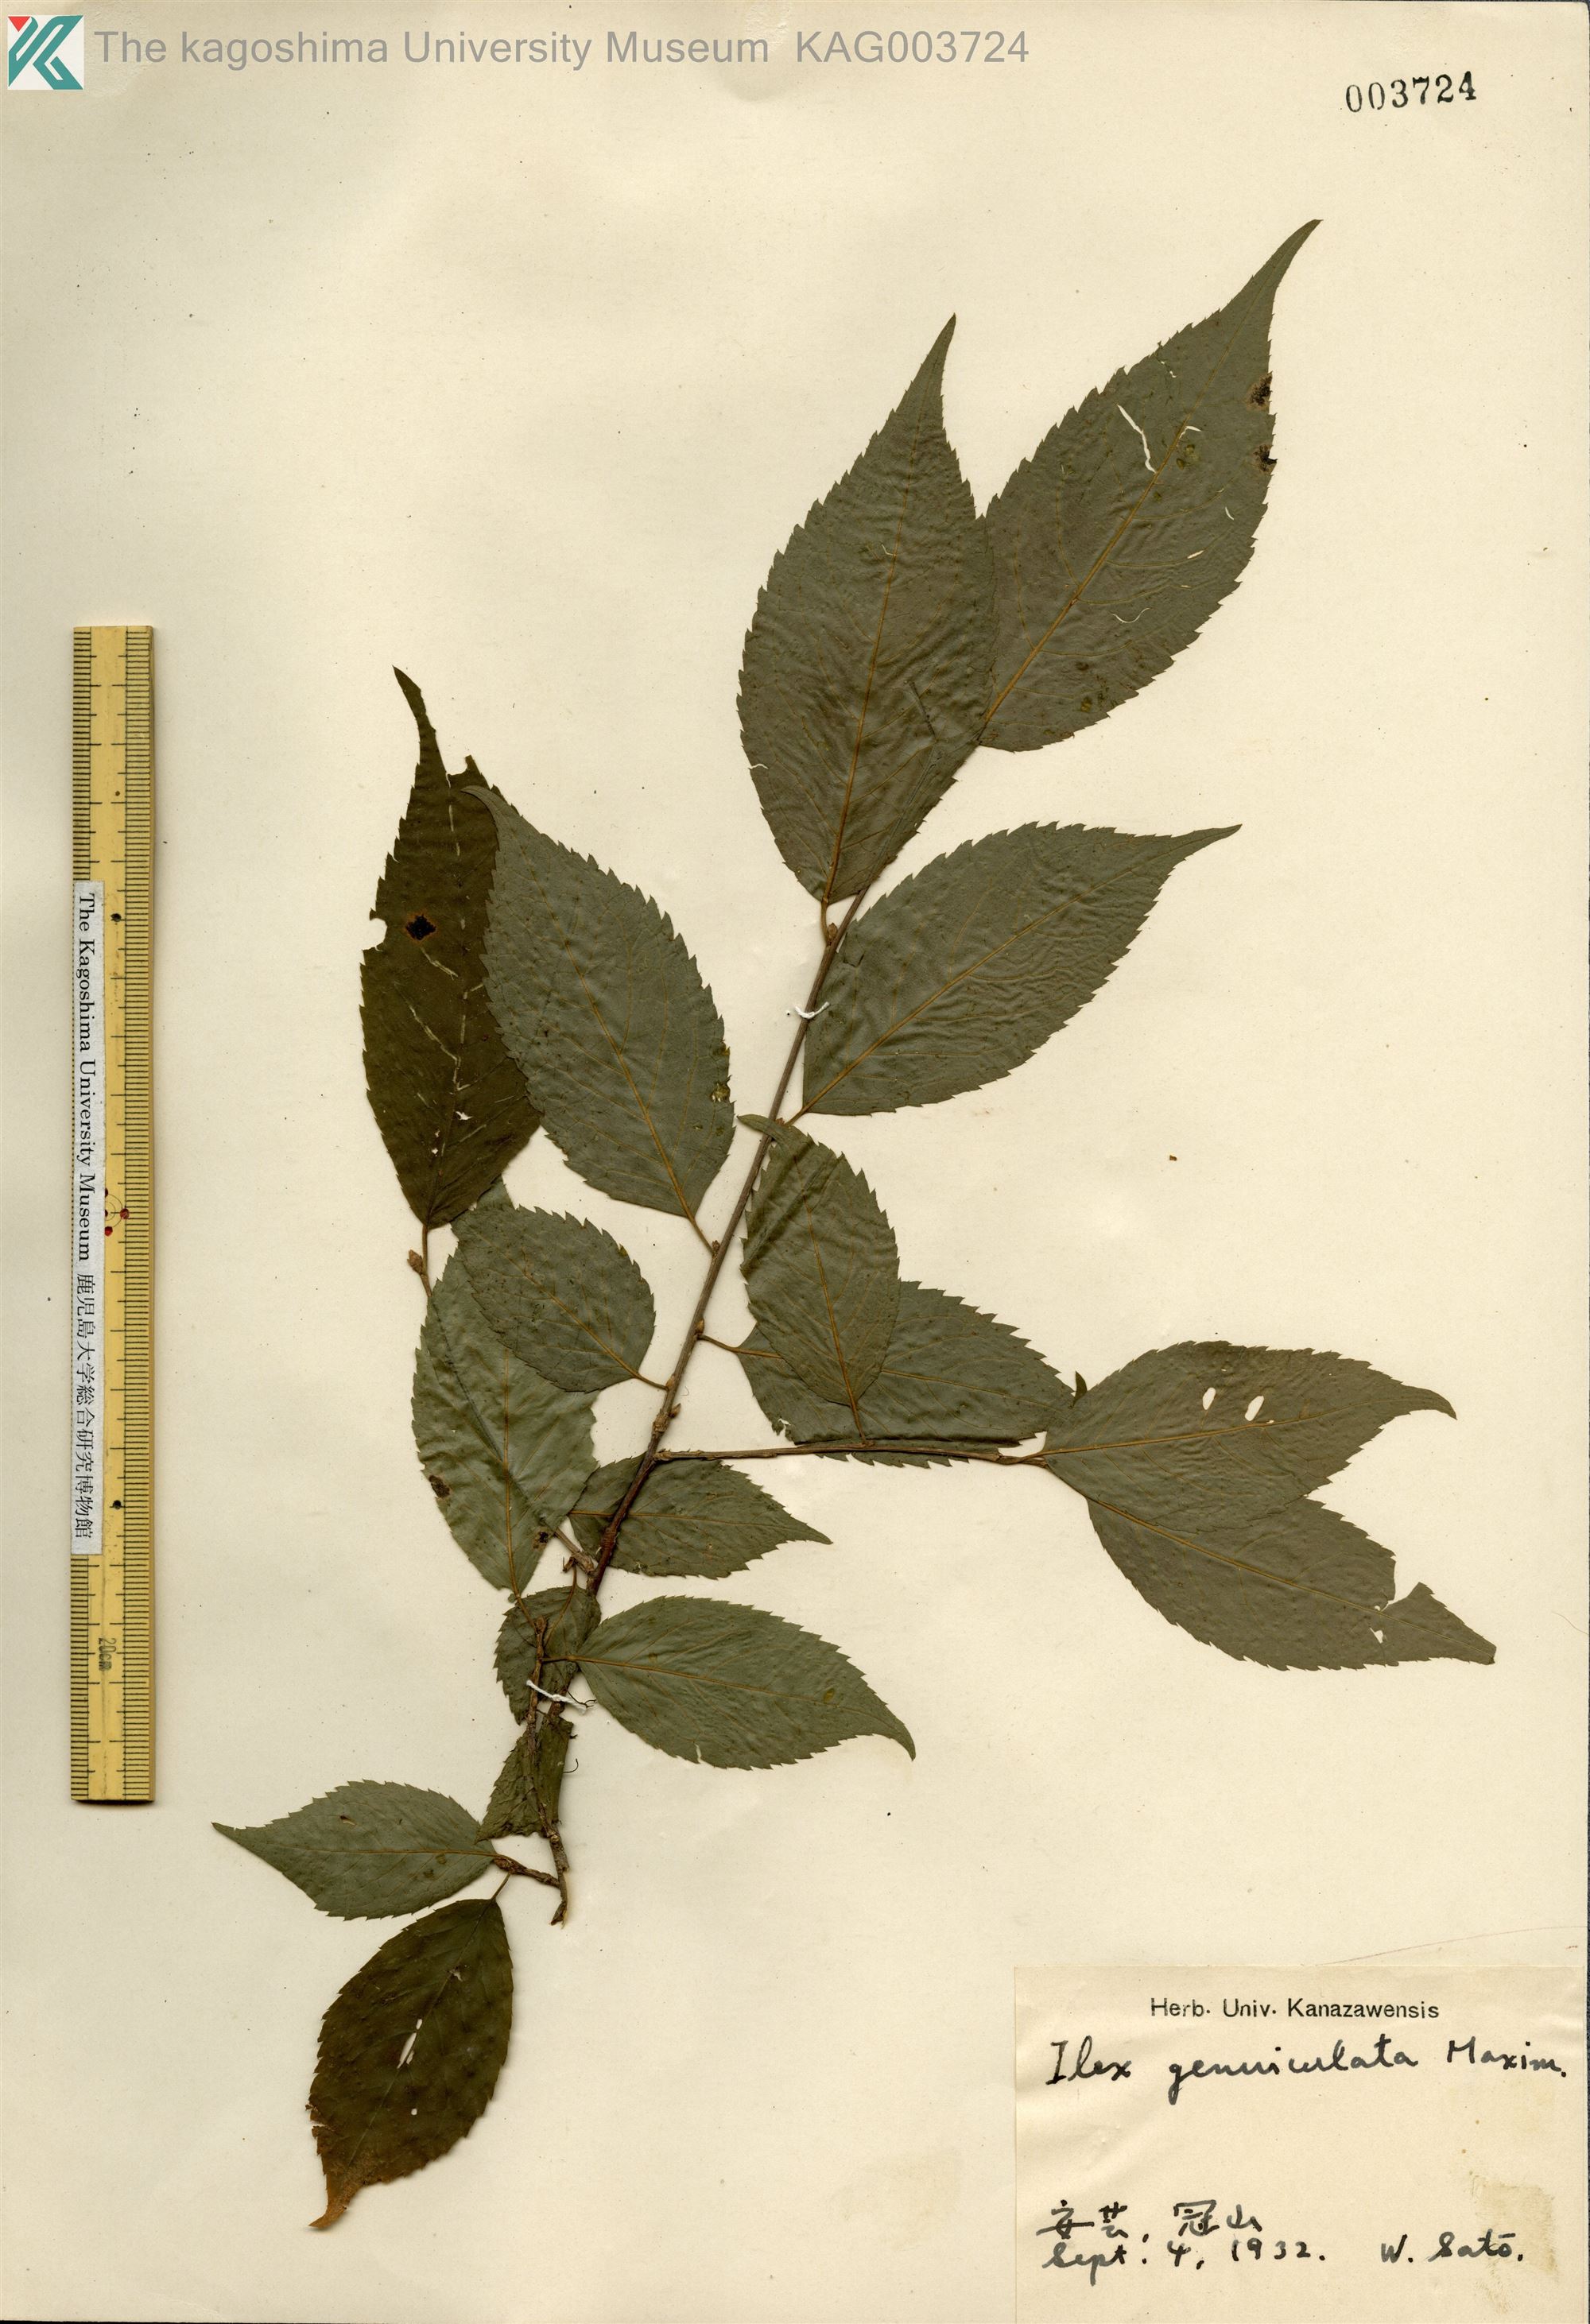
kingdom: Plantae
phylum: Tracheophyta
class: Magnoliopsida
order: Aquifoliales
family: Aquifoliaceae
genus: Ilex
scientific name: Ilex geniculata
